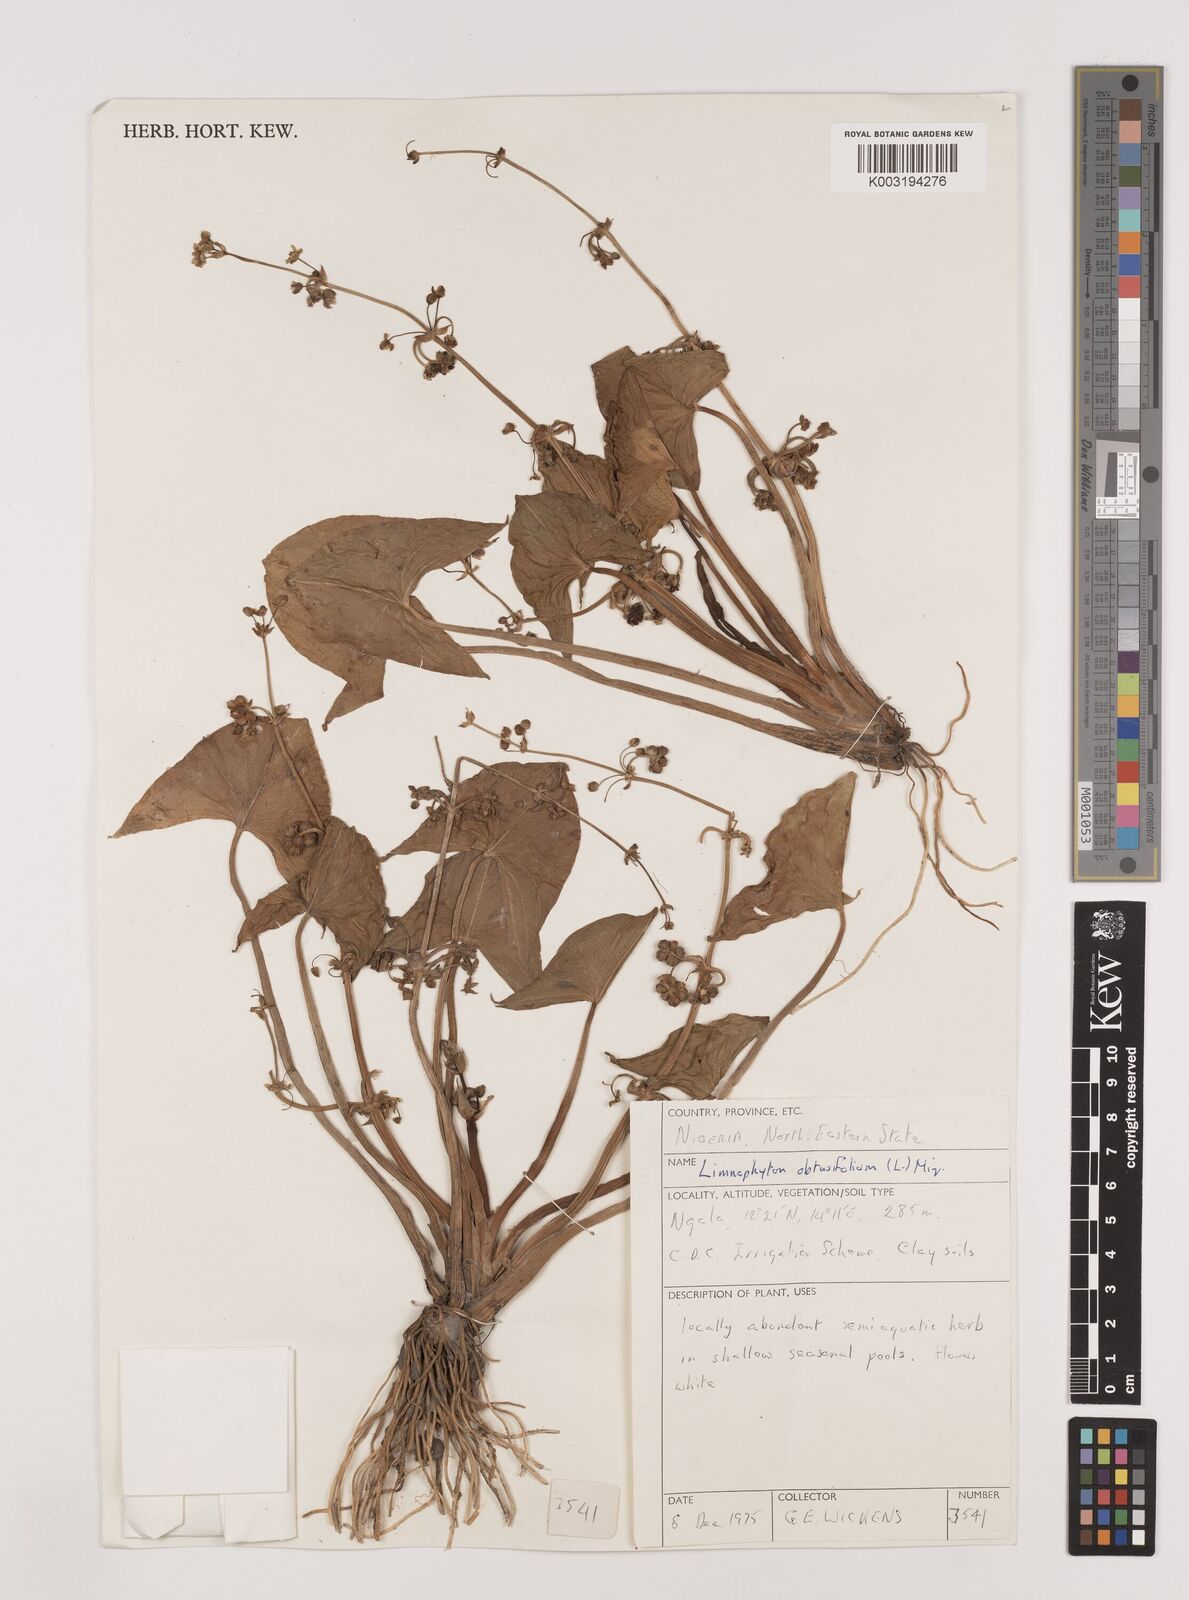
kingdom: Plantae
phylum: Tracheophyta
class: Liliopsida
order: Alismatales
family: Alismataceae
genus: Limnophyton
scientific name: Limnophyton obtusifolium
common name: Arrow head
